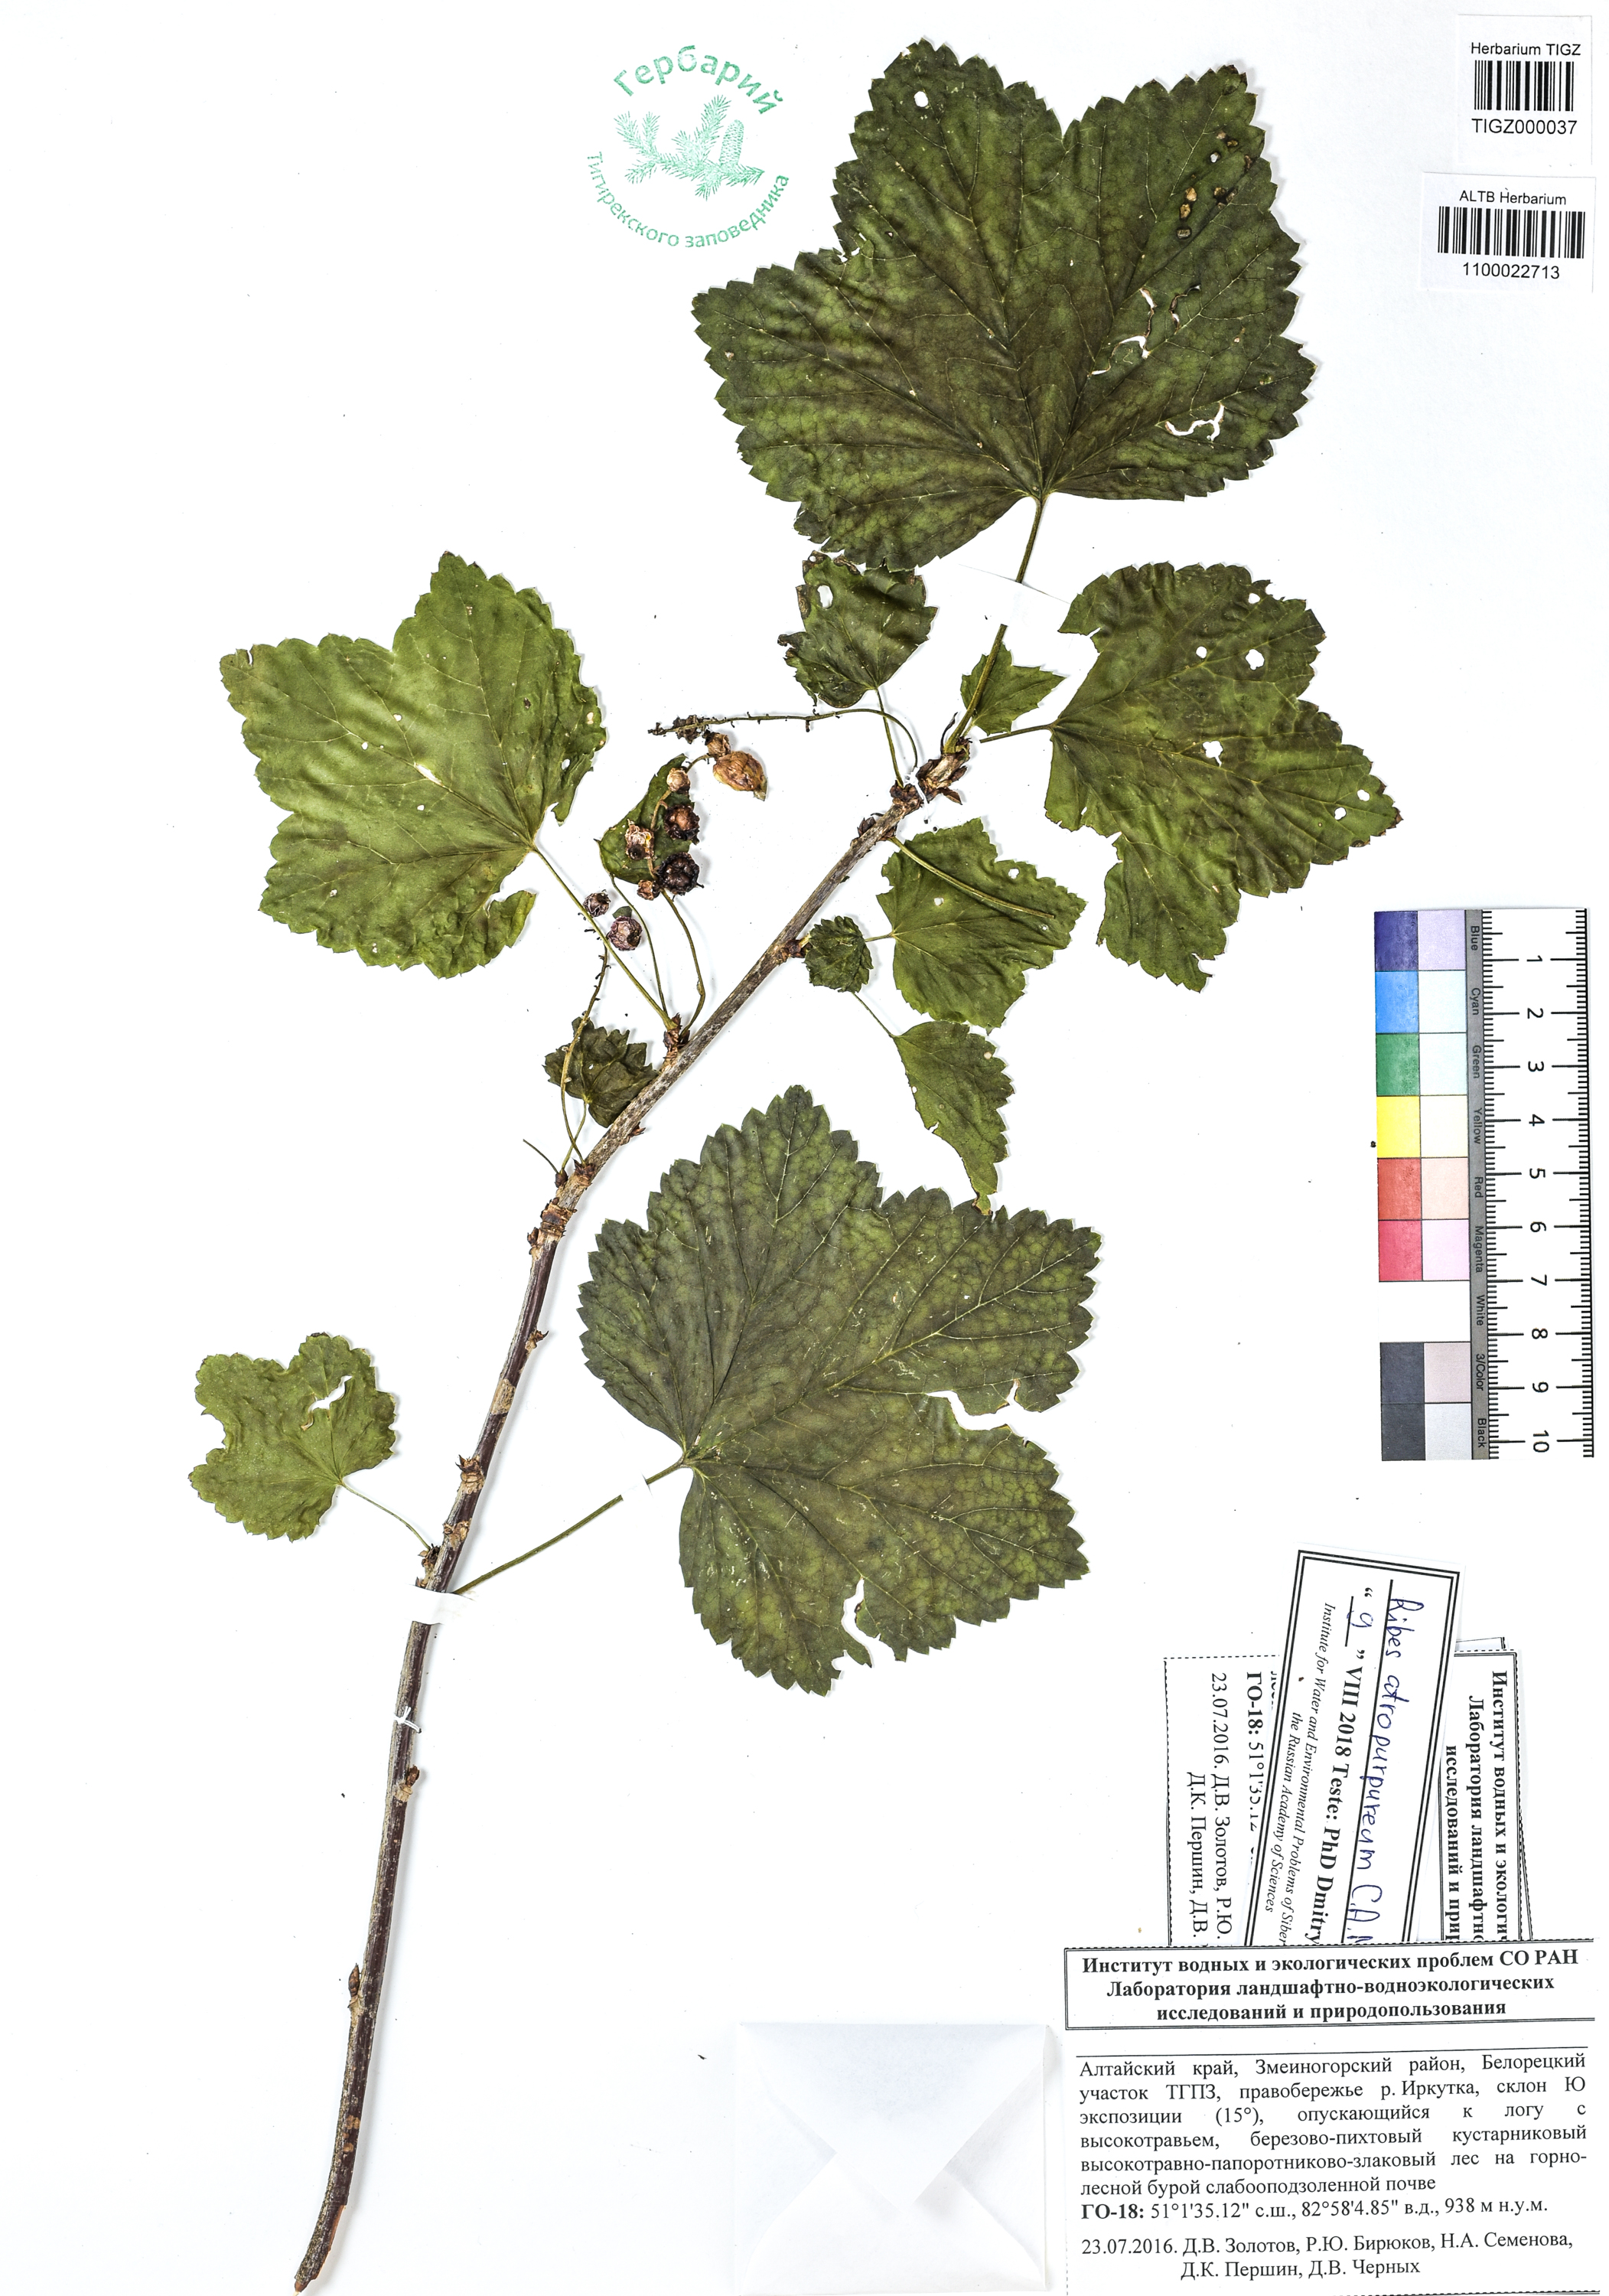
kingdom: Plantae
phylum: Tracheophyta
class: Magnoliopsida
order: Saxifragales
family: Grossulariaceae
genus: Ribes
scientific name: Ribes petraeum
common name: Rock currant
